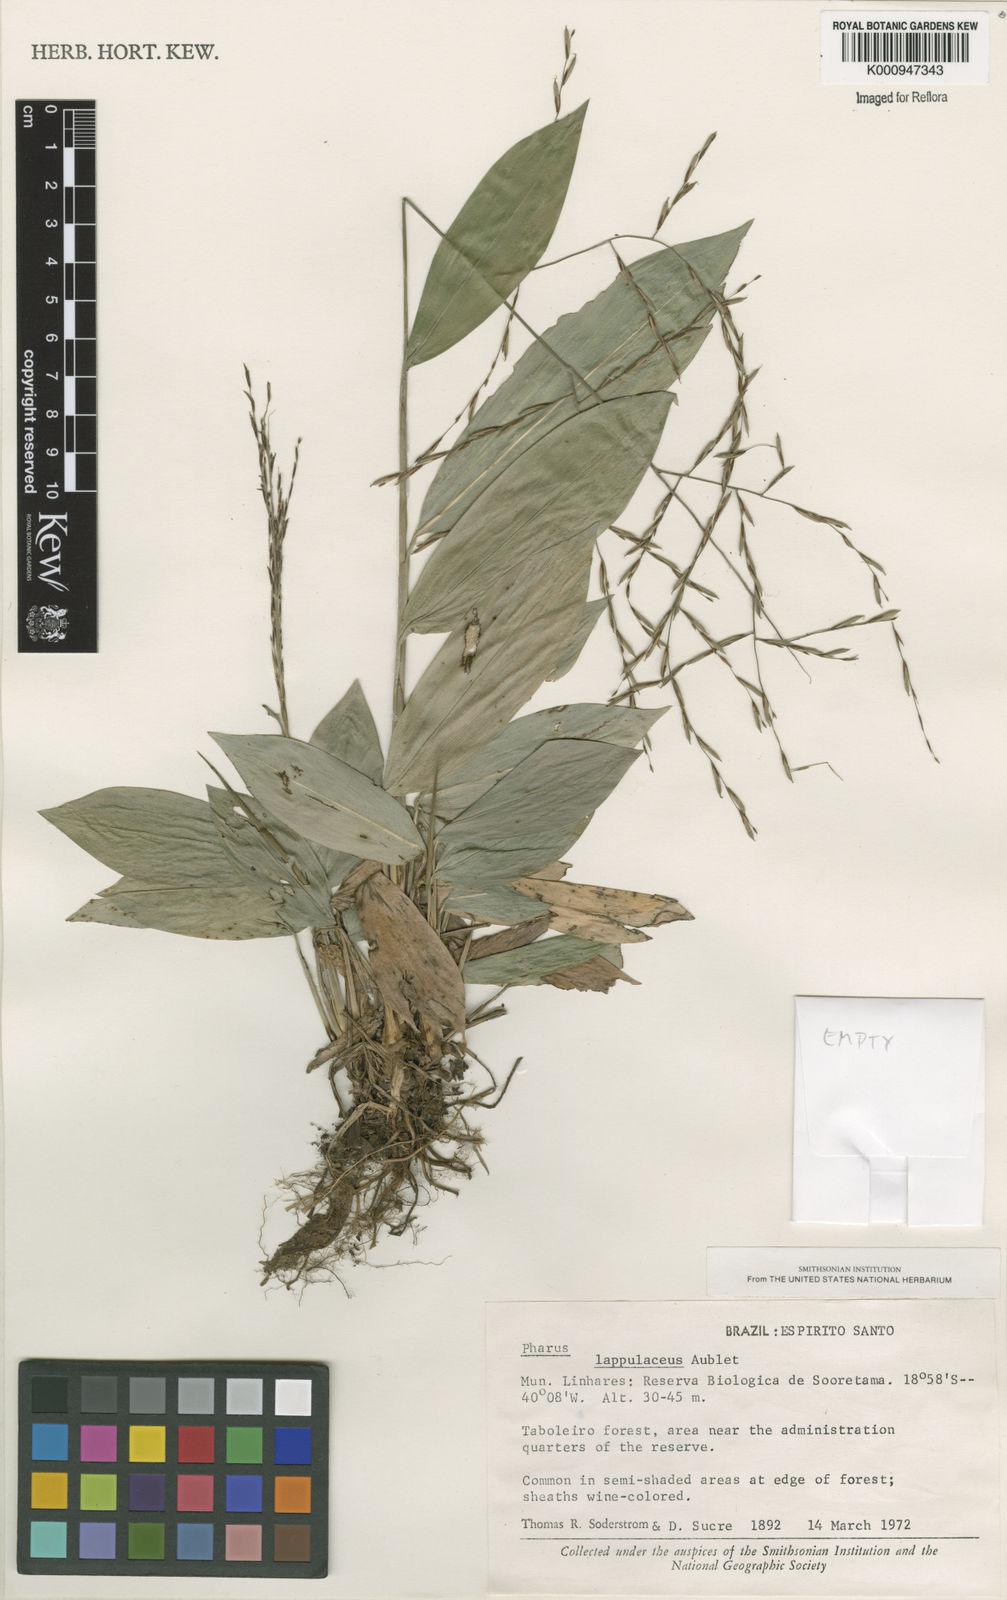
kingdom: Plantae
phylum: Tracheophyta
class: Liliopsida
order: Poales
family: Poaceae
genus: Pharus
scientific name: Pharus lappulaceus
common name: Creeping leafstalk grass
